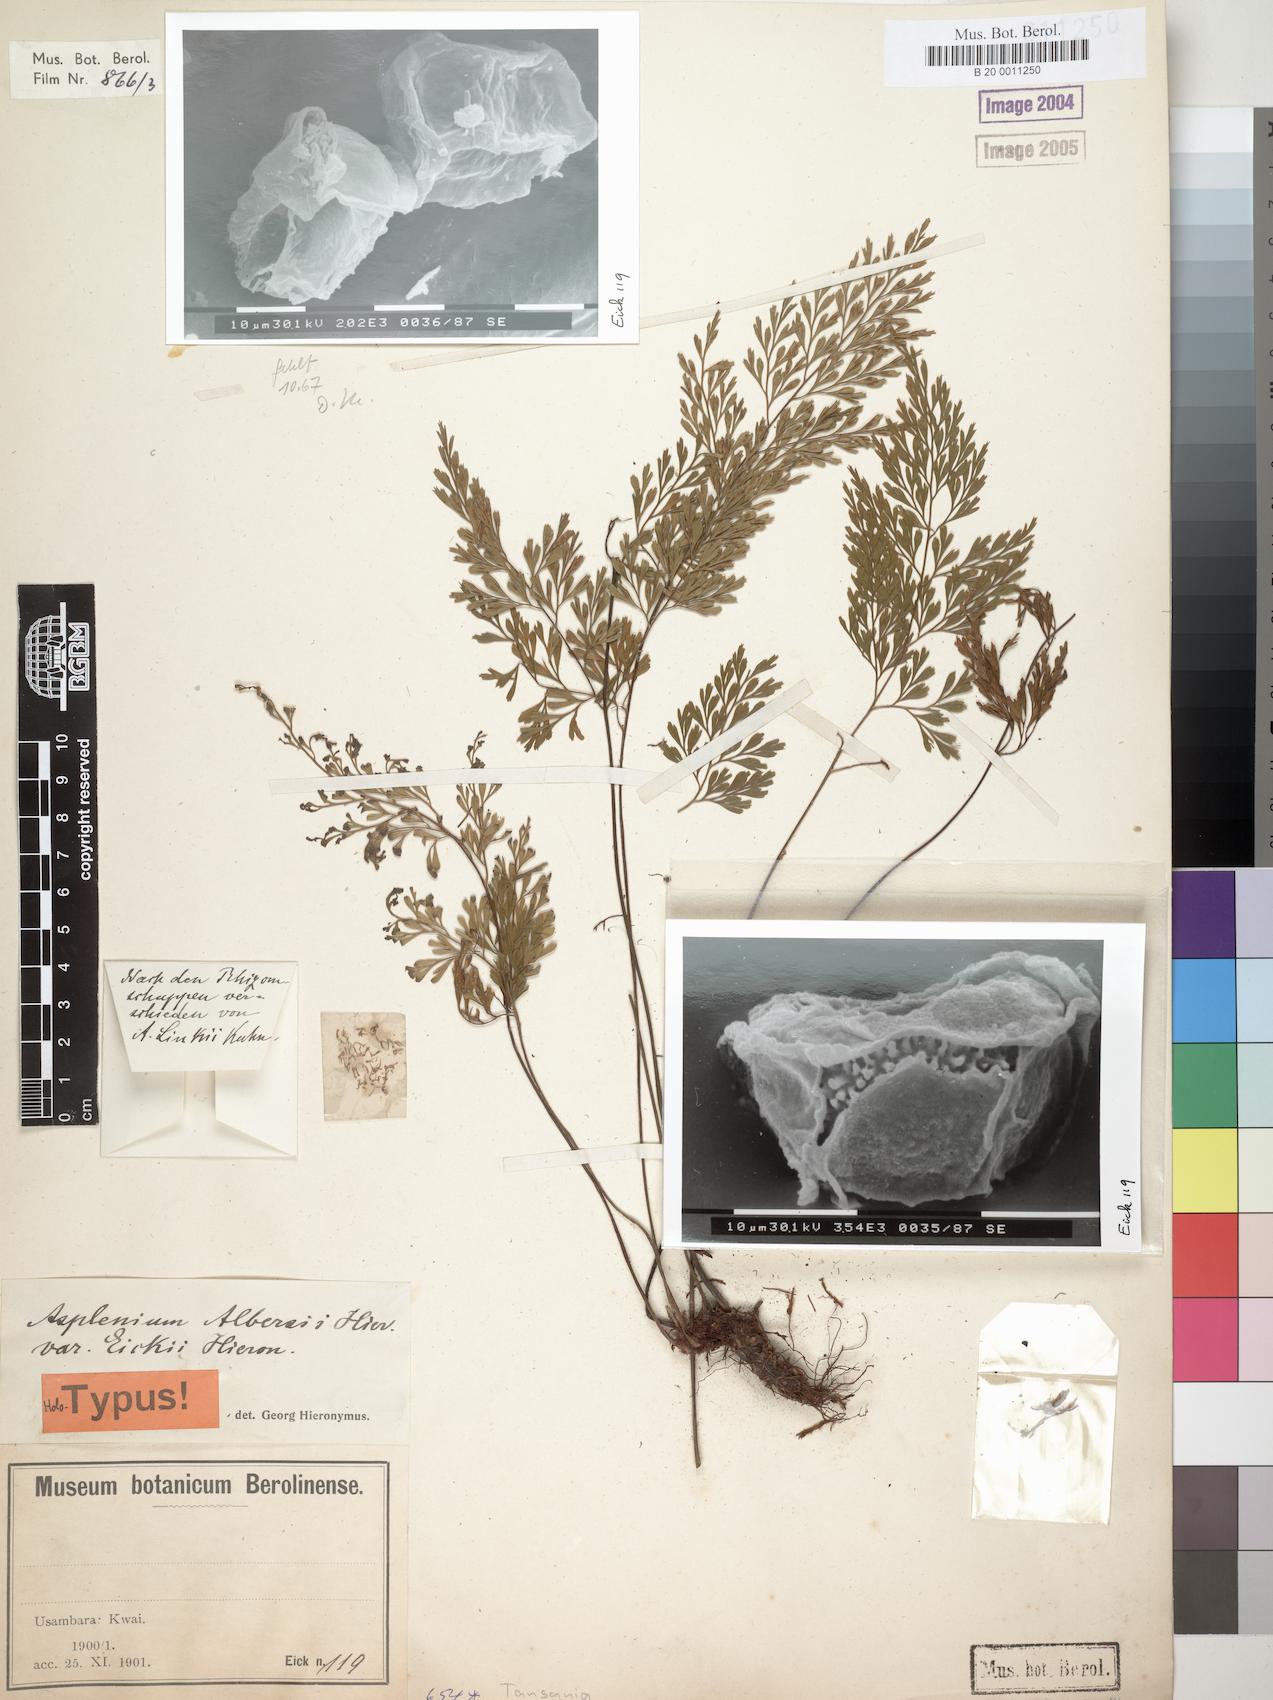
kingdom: Plantae
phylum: Tracheophyta
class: Polypodiopsida
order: Polypodiales
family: Aspleniaceae
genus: Asplenium
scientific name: Asplenium linckii
